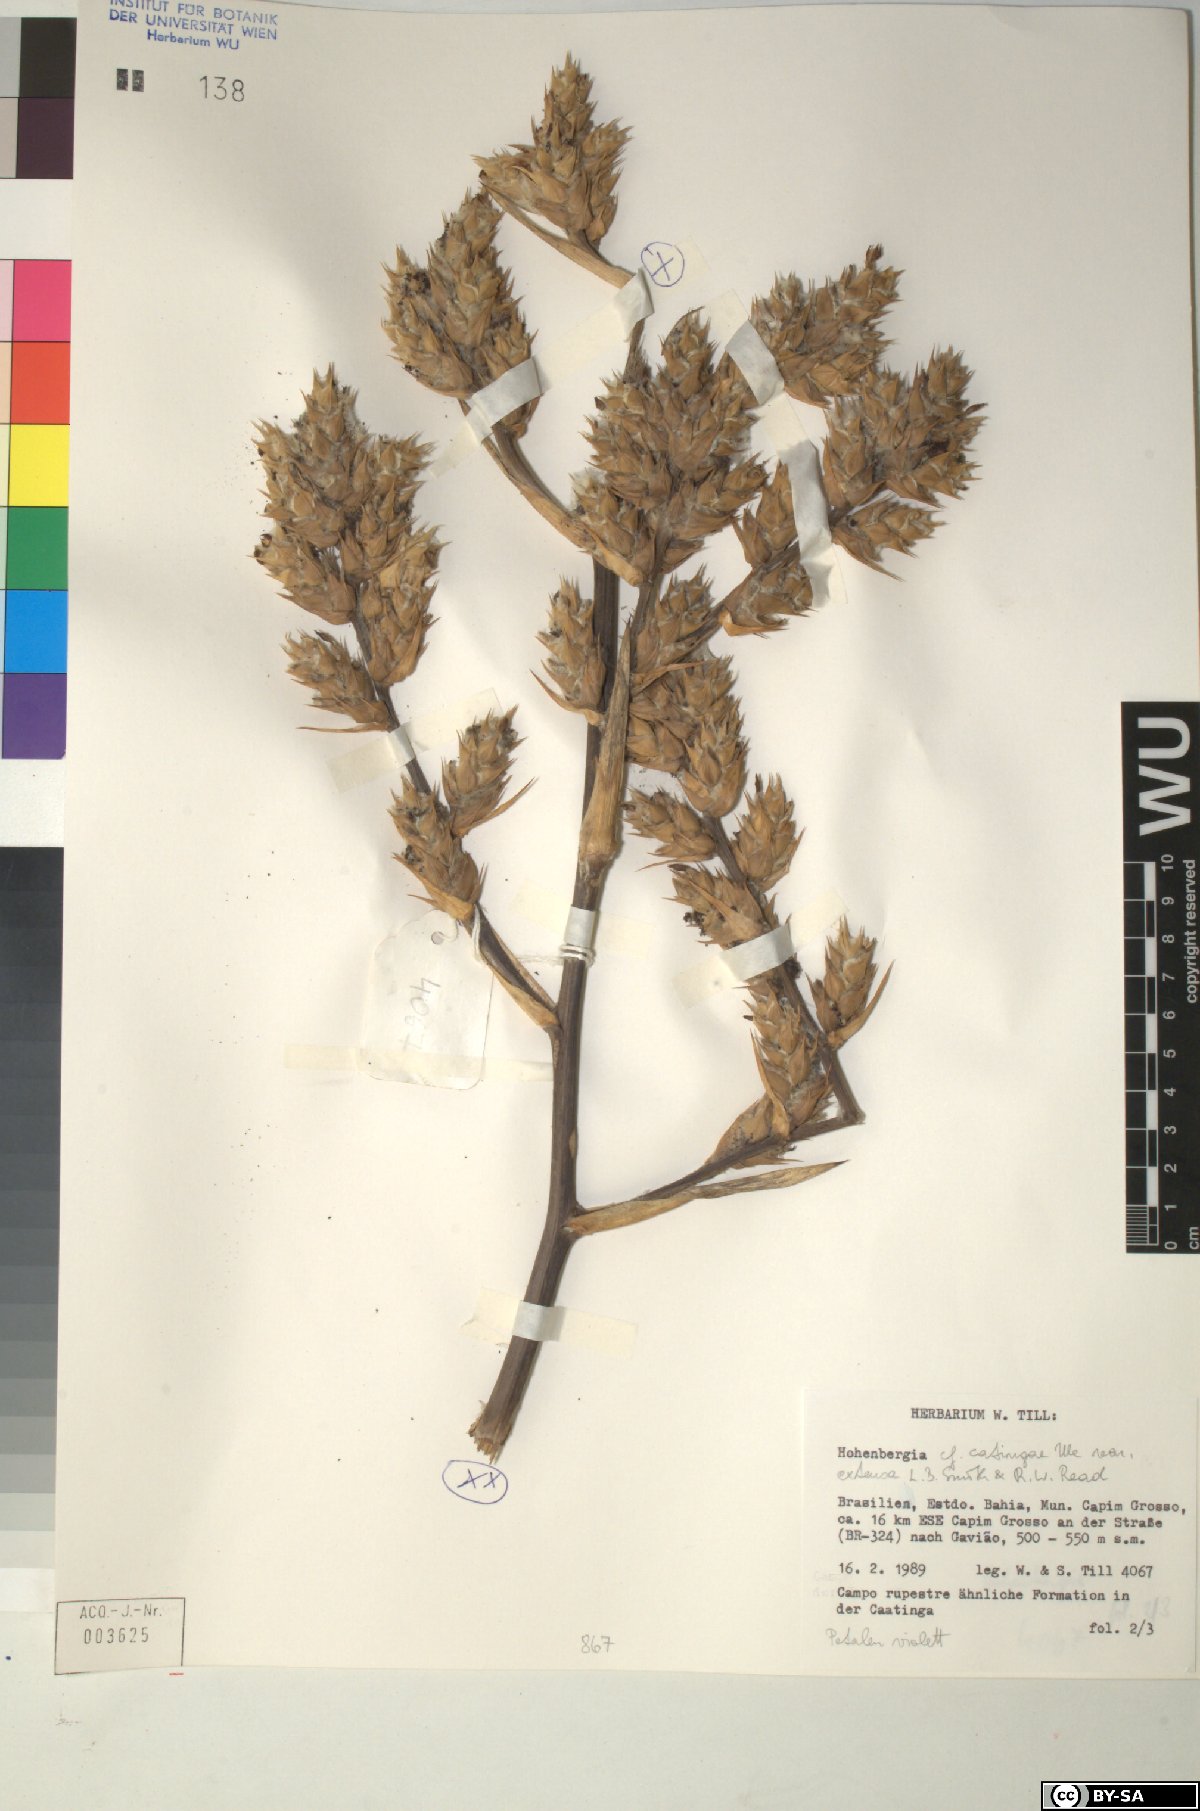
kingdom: Plantae
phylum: Tracheophyta
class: Liliopsida
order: Poales
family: Bromeliaceae
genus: Hohenbergia
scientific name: Hohenbergia
